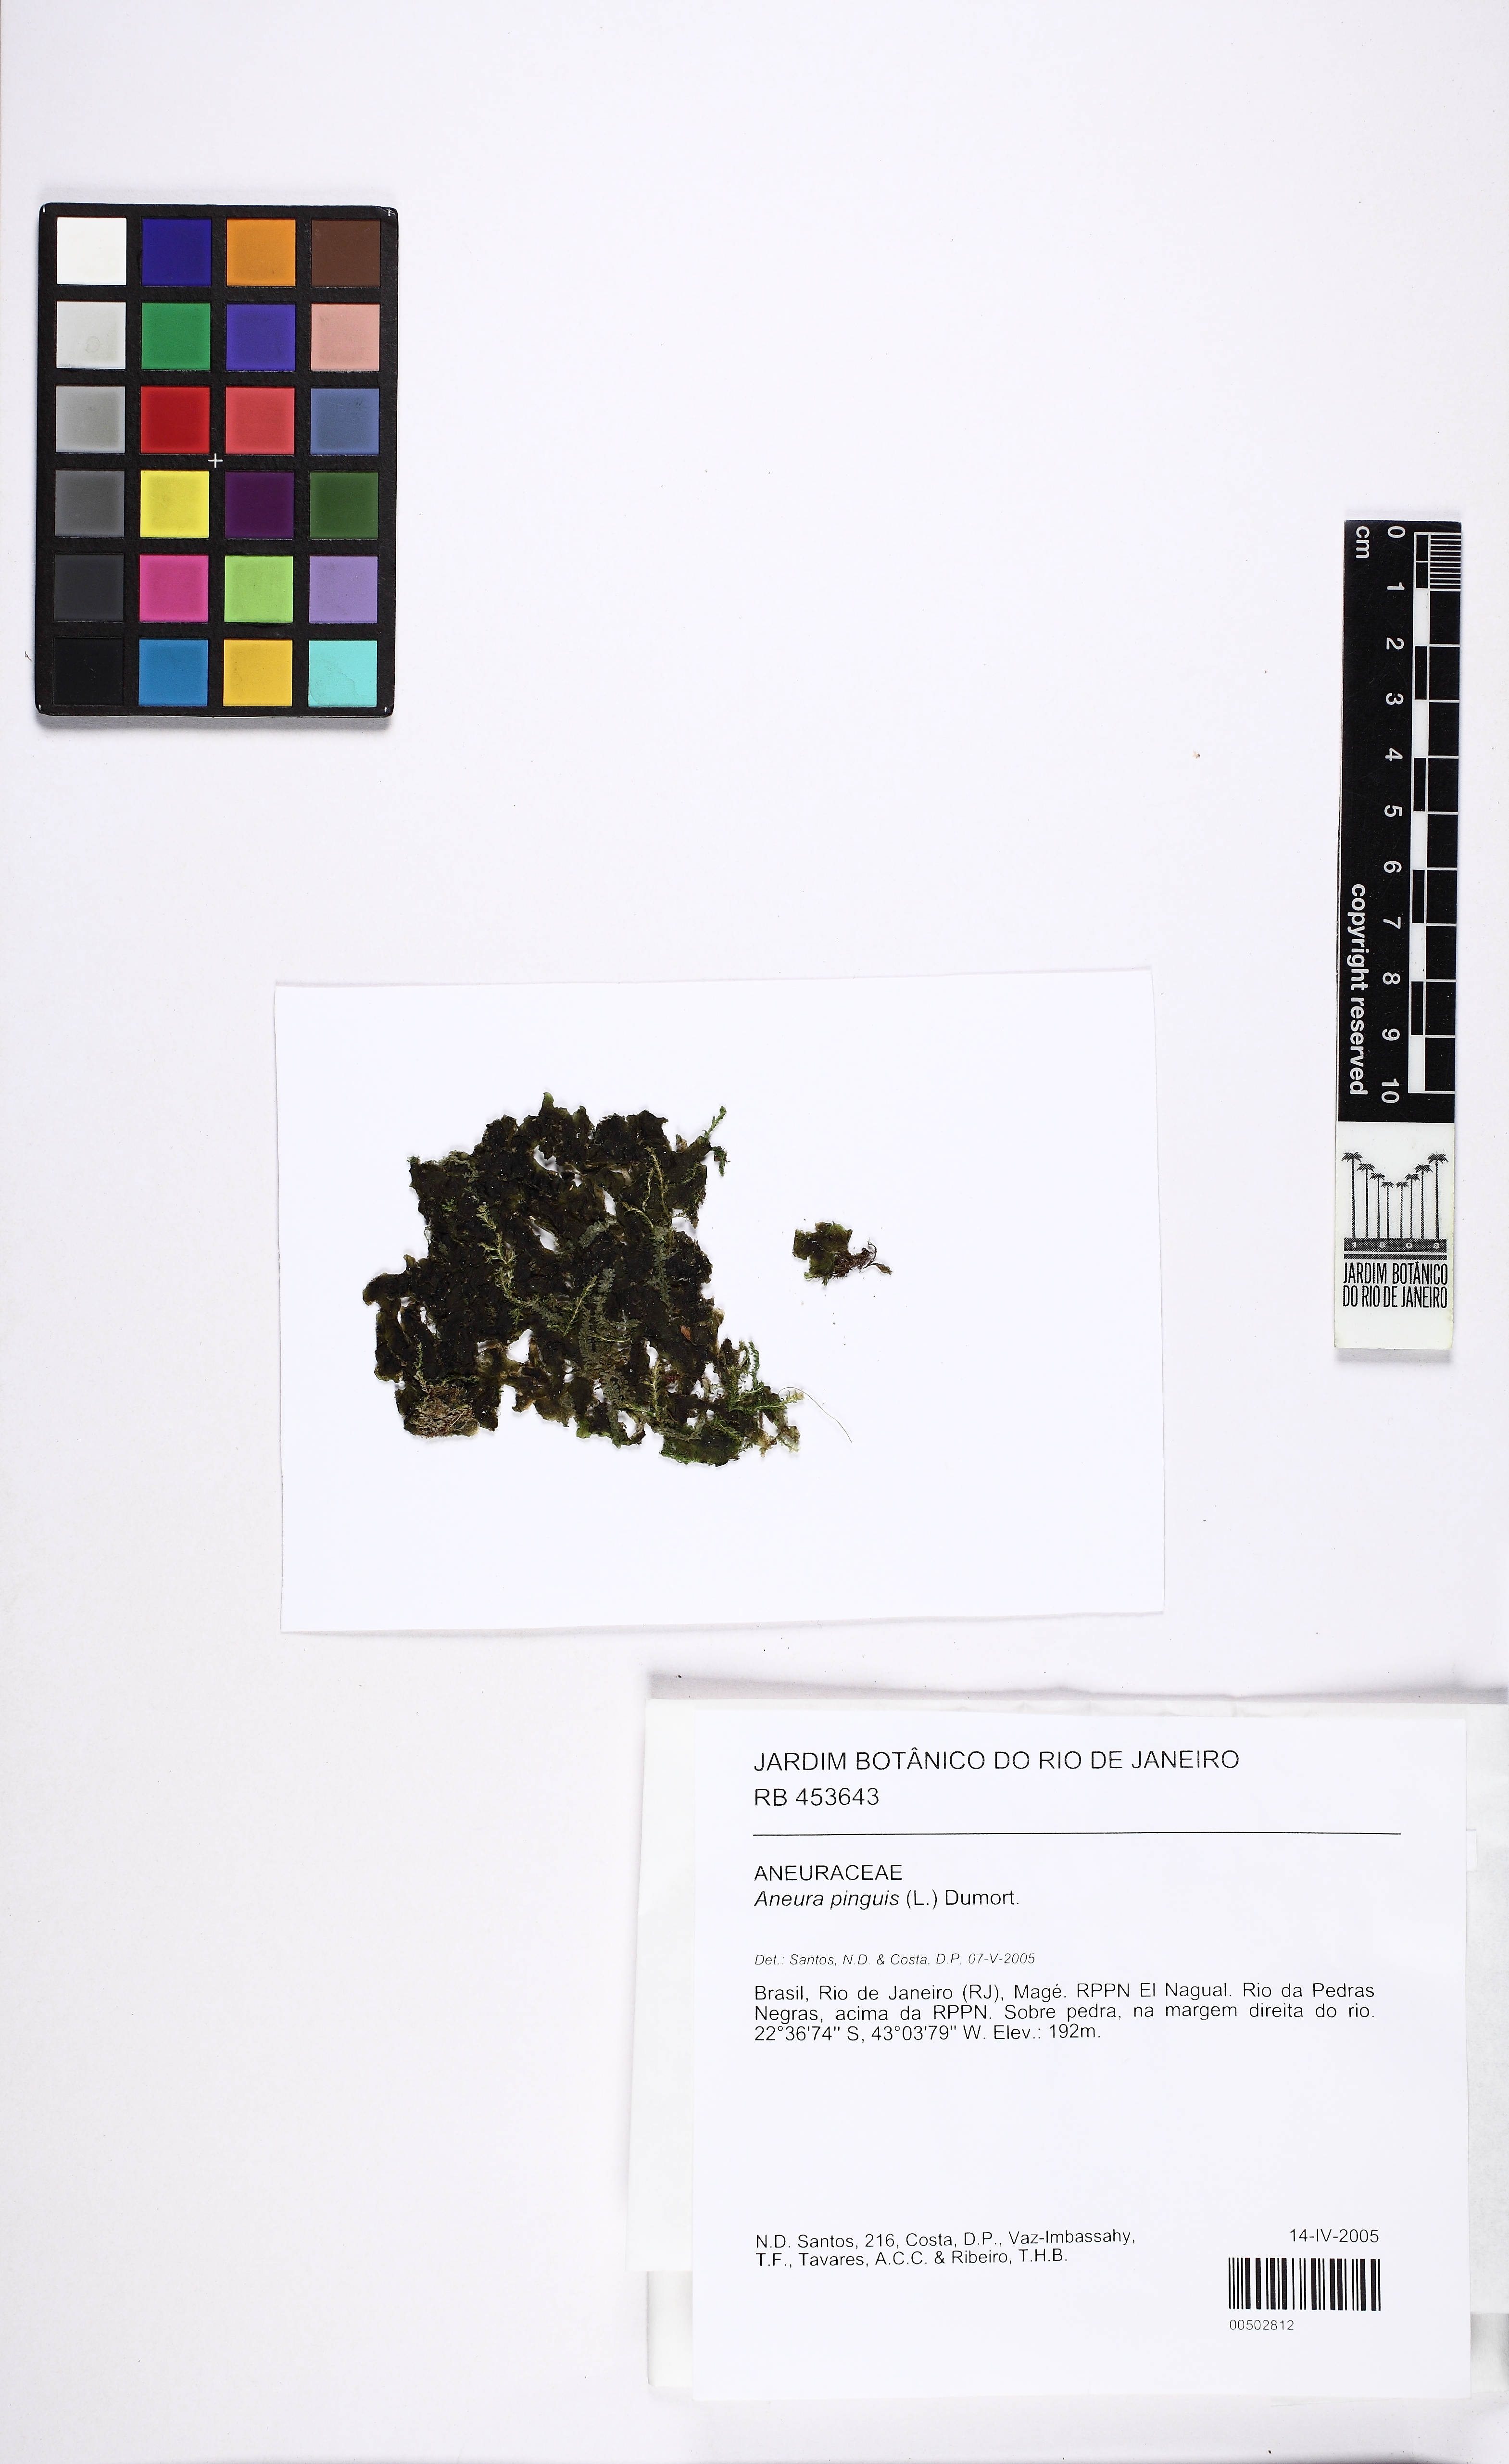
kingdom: Plantae
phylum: Marchantiophyta
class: Jungermanniopsida
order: Metzgeriales
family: Aneuraceae
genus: Aneura
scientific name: Aneura pinguis
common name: Common greasewort
